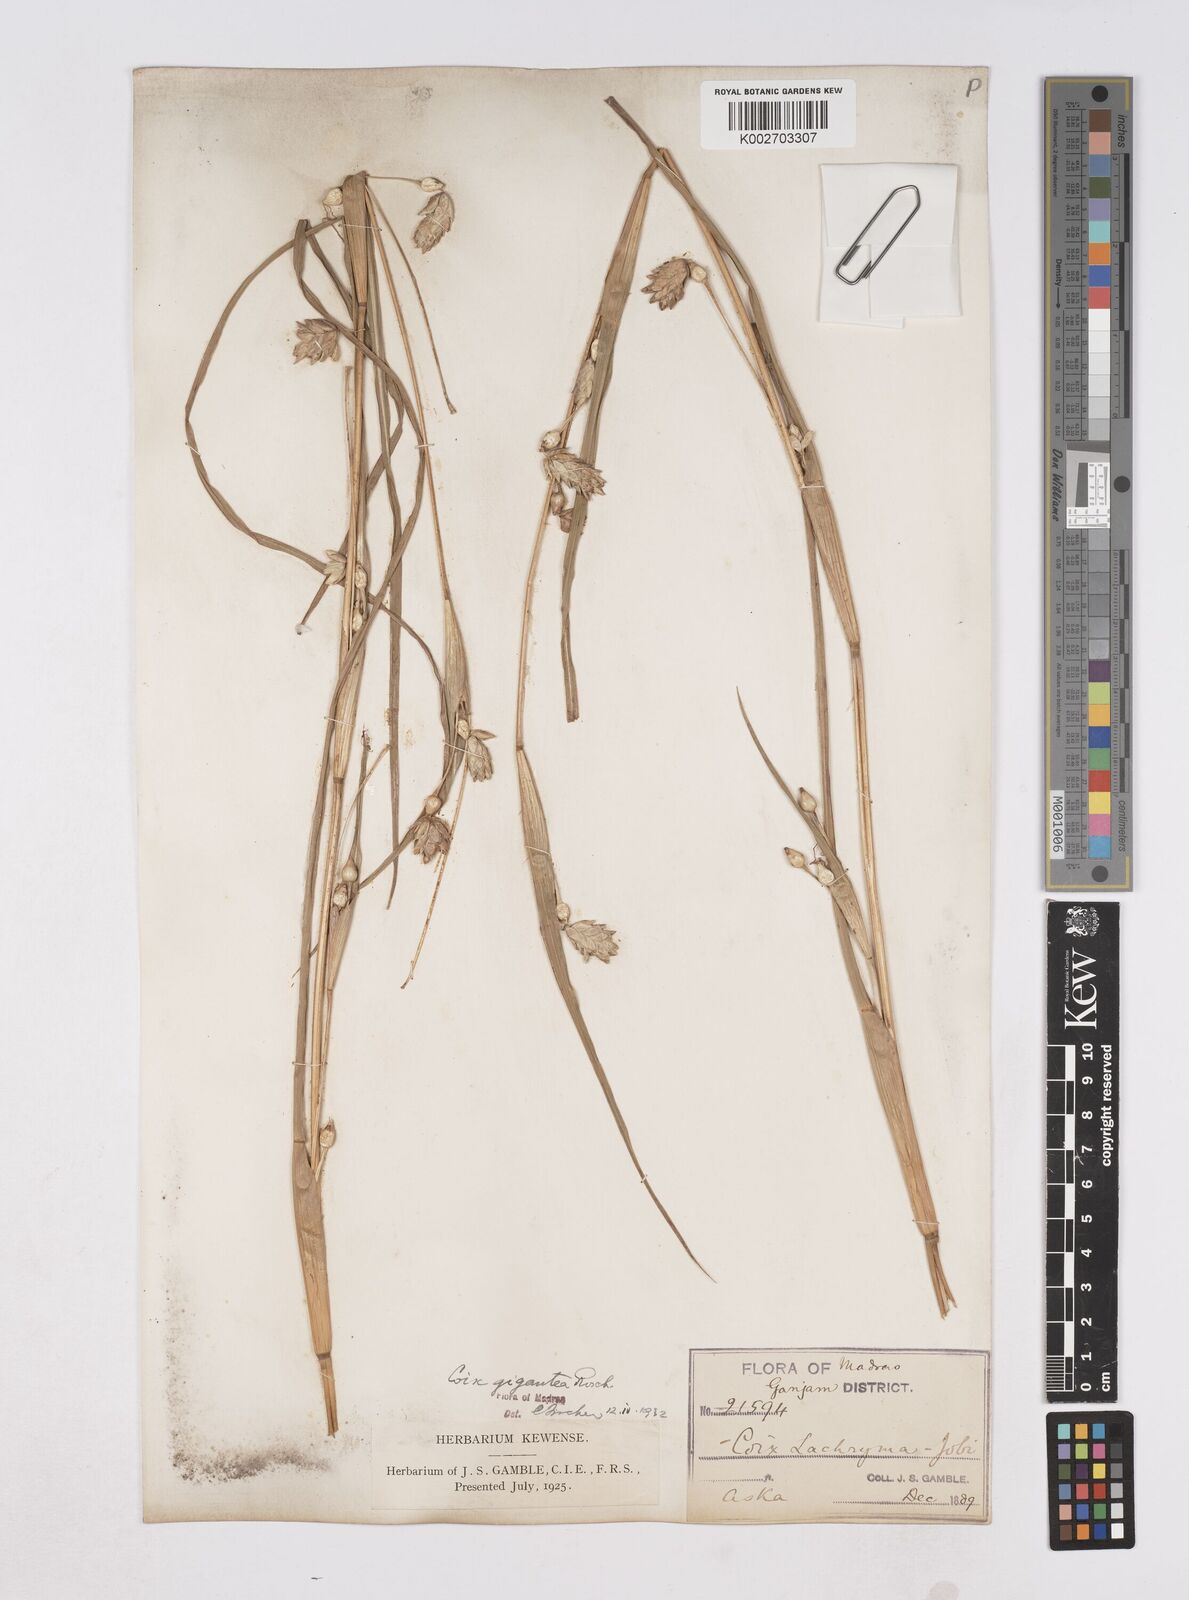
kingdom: Plantae
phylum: Tracheophyta
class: Liliopsida
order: Poales
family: Poaceae
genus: Polytoca
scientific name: Polytoca gigantea
